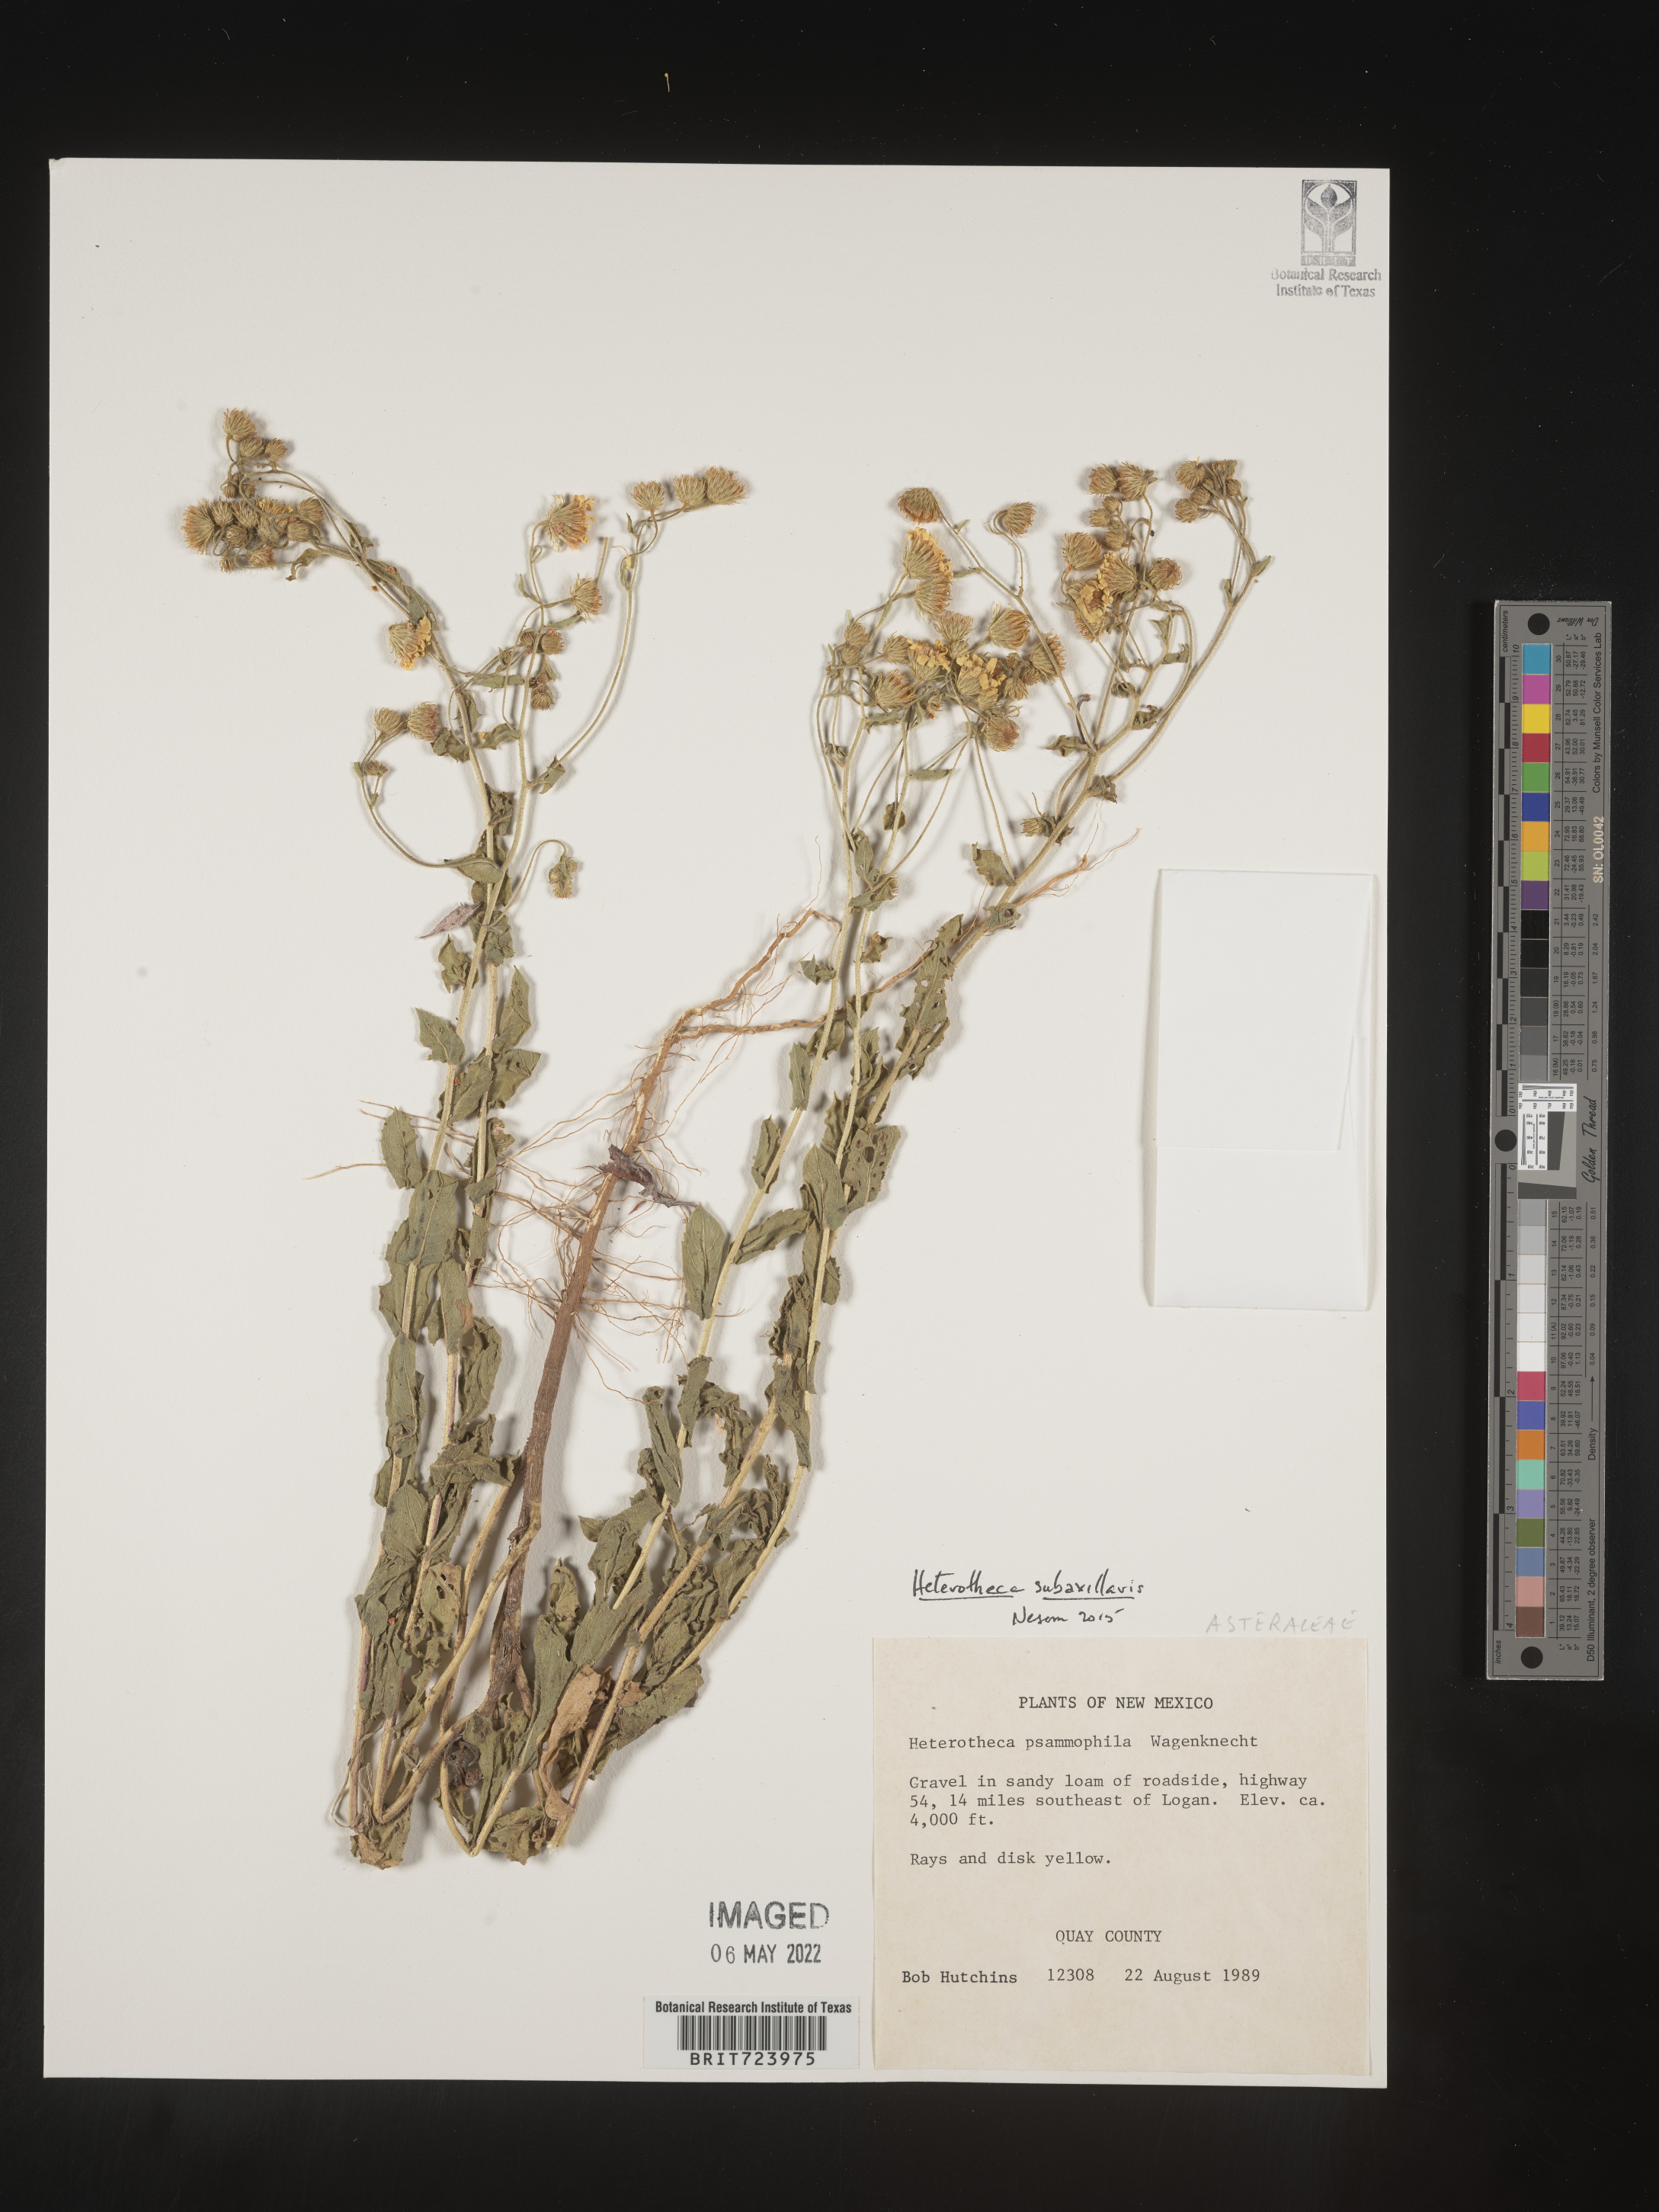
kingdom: Plantae
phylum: Tracheophyta
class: Magnoliopsida
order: Asterales
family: Asteraceae
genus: Heterotheca
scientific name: Heterotheca subaxillaris
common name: Camphorweed
